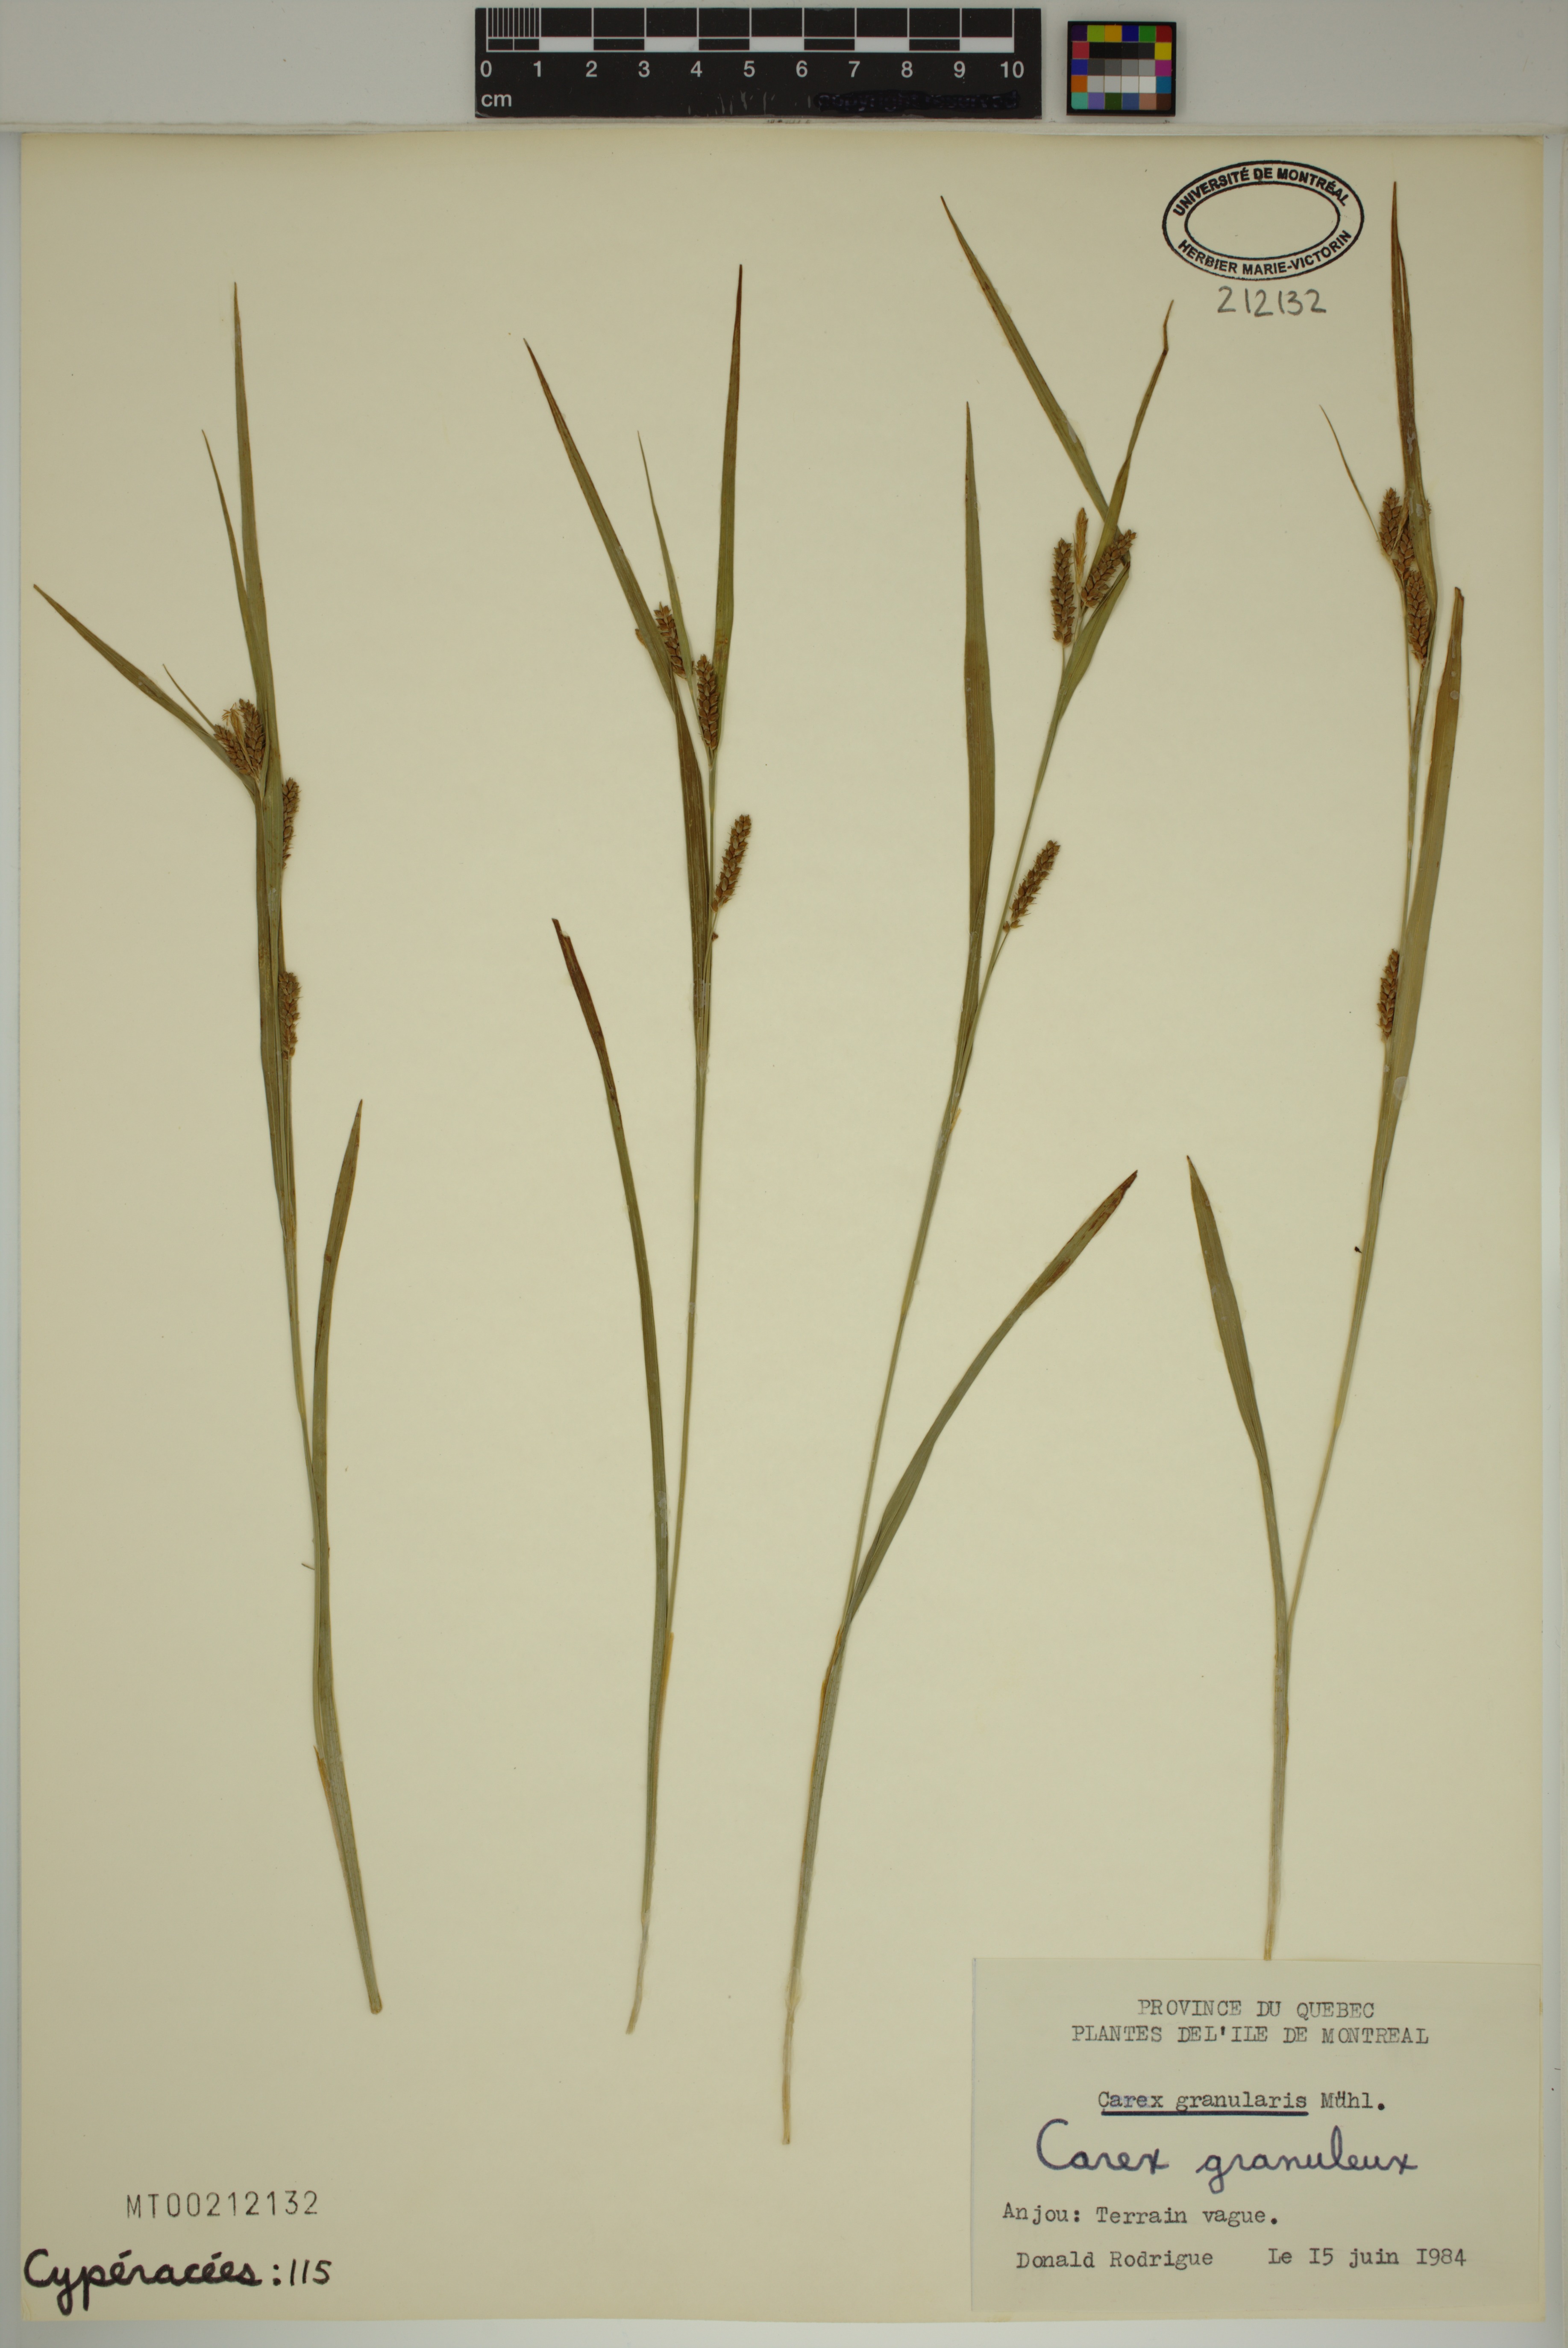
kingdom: Plantae
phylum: Tracheophyta
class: Liliopsida
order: Poales
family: Cyperaceae
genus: Carex
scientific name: Carex granularis
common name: Granular sedge
